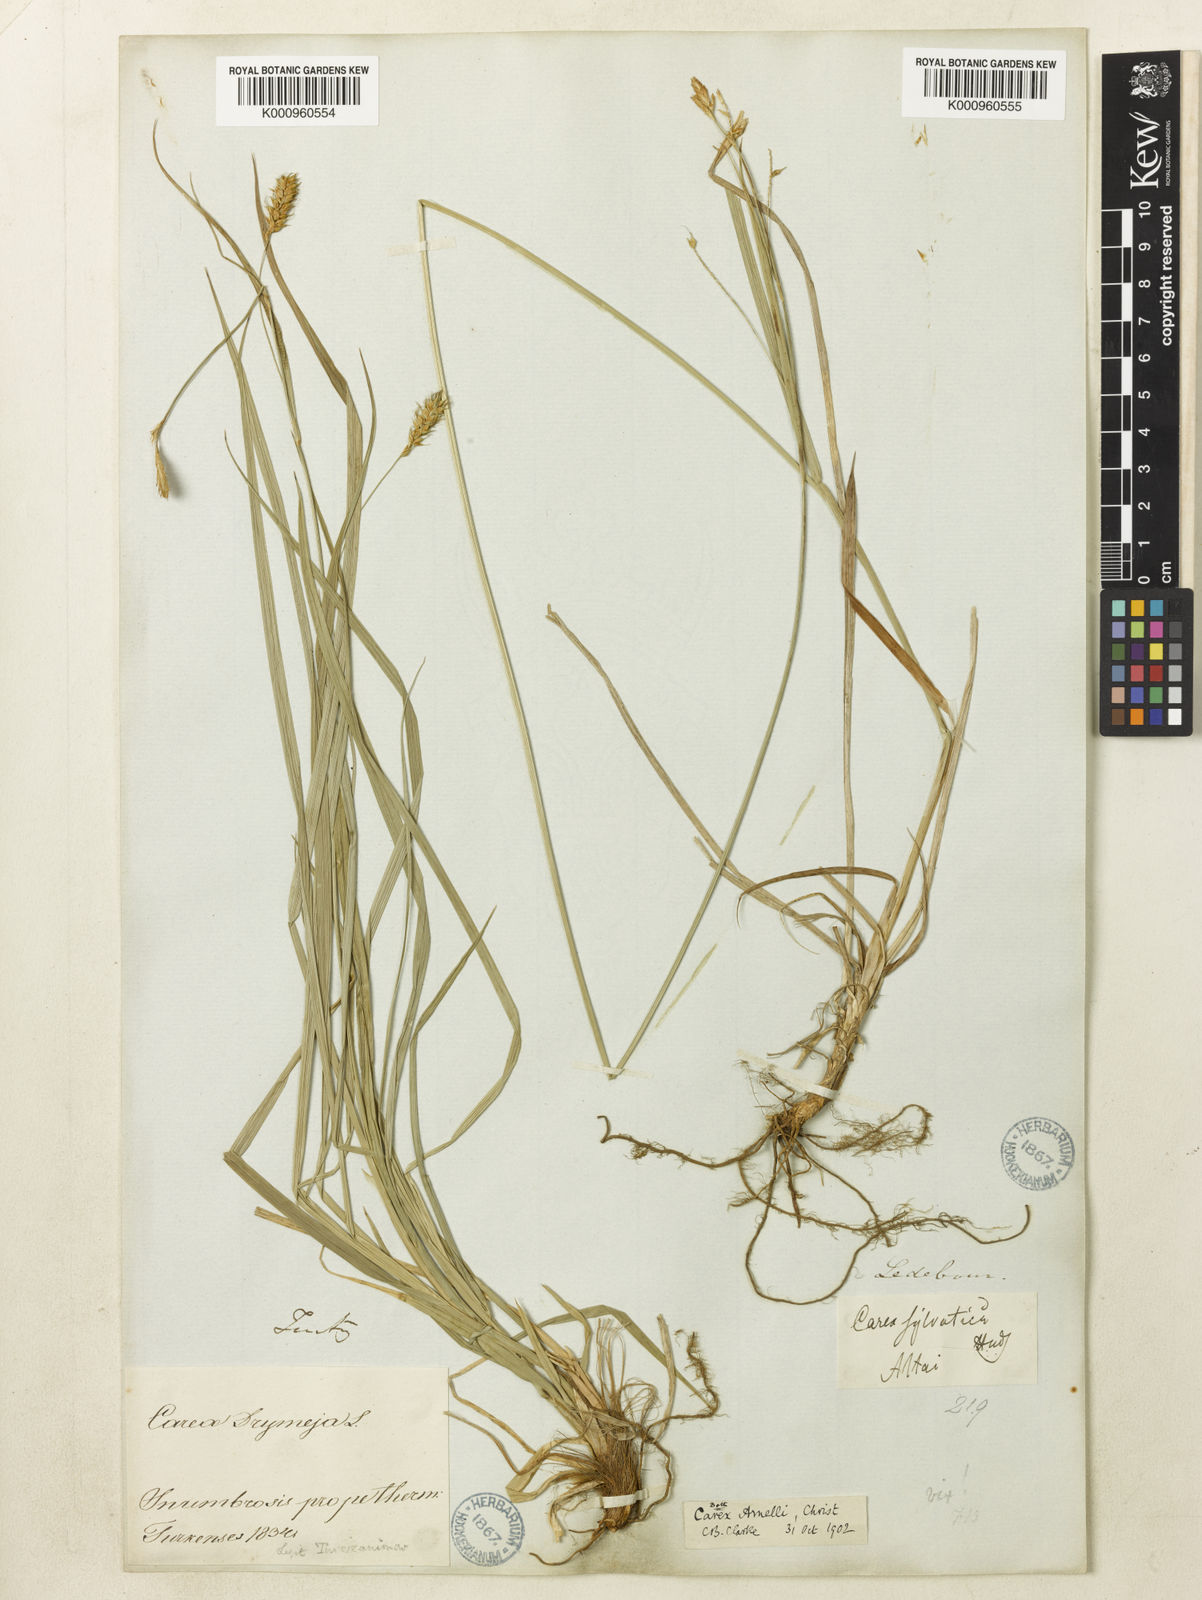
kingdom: Plantae
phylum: Tracheophyta
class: Liliopsida
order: Poales
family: Cyperaceae
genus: Carex
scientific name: Carex arnellii
